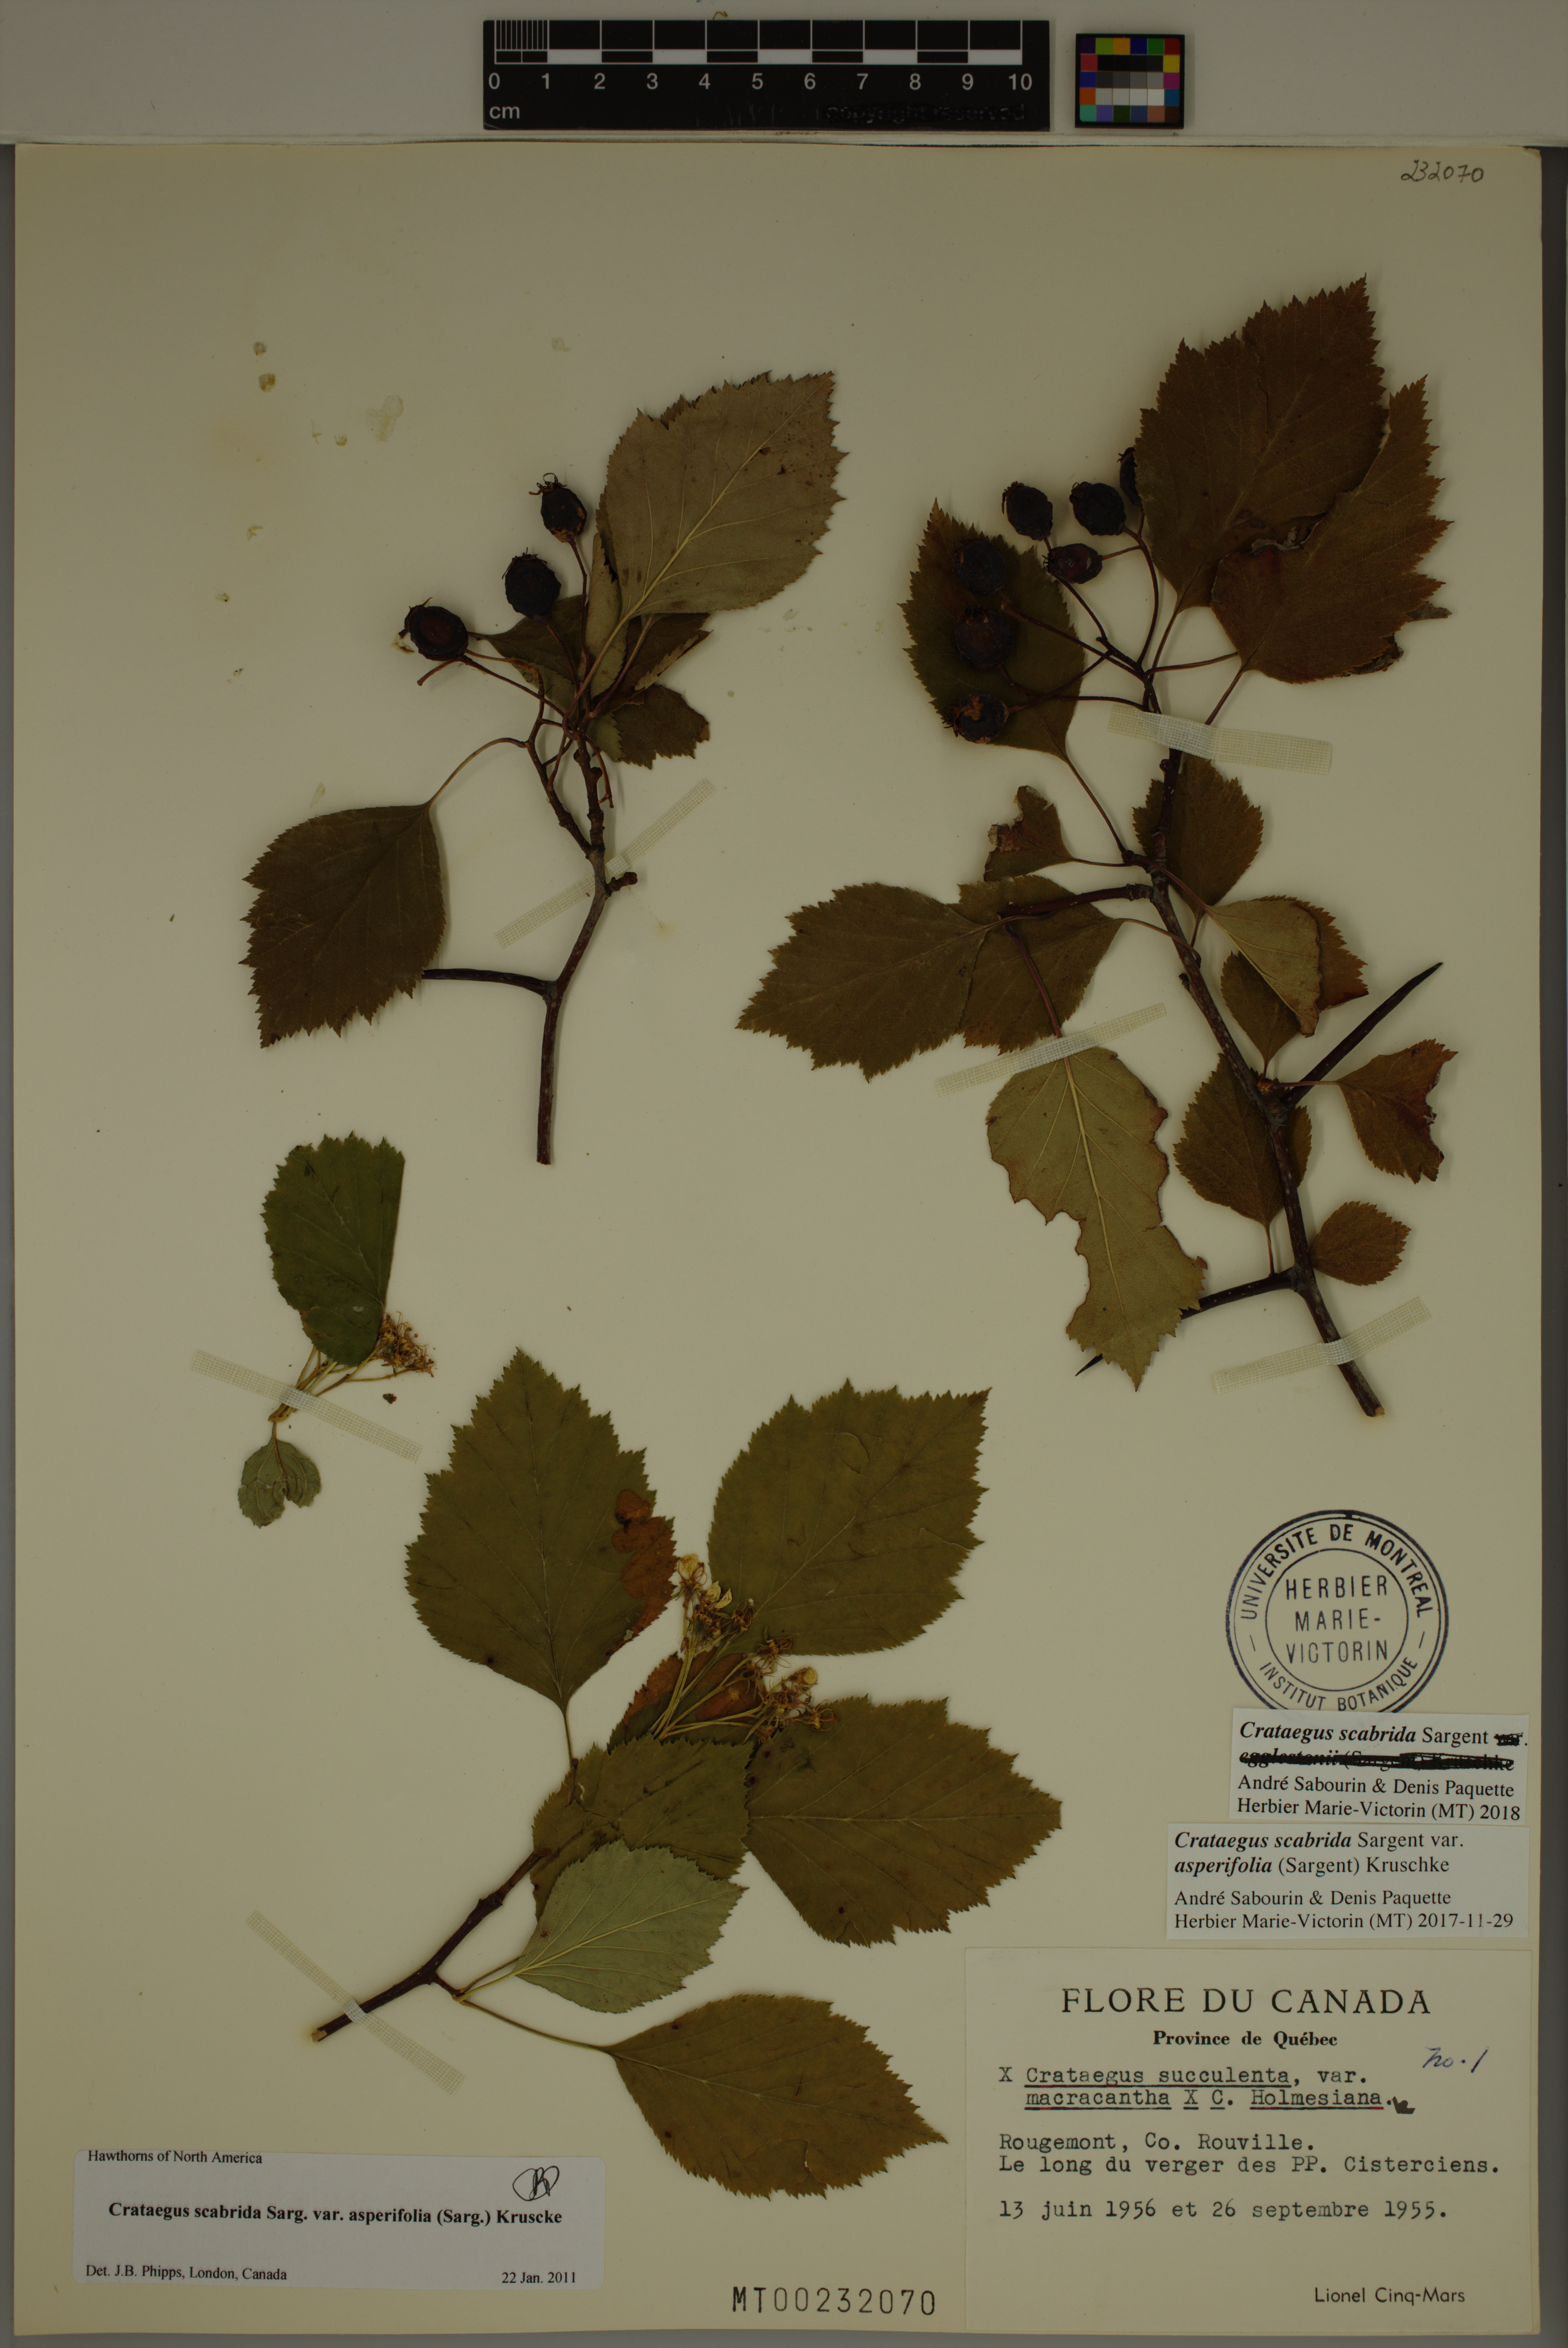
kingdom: Plantae
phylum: Tracheophyta
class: Magnoliopsida
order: Rosales
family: Rosaceae
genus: Crataegus
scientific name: Crataegus scabrida
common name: Rough hawthorn
